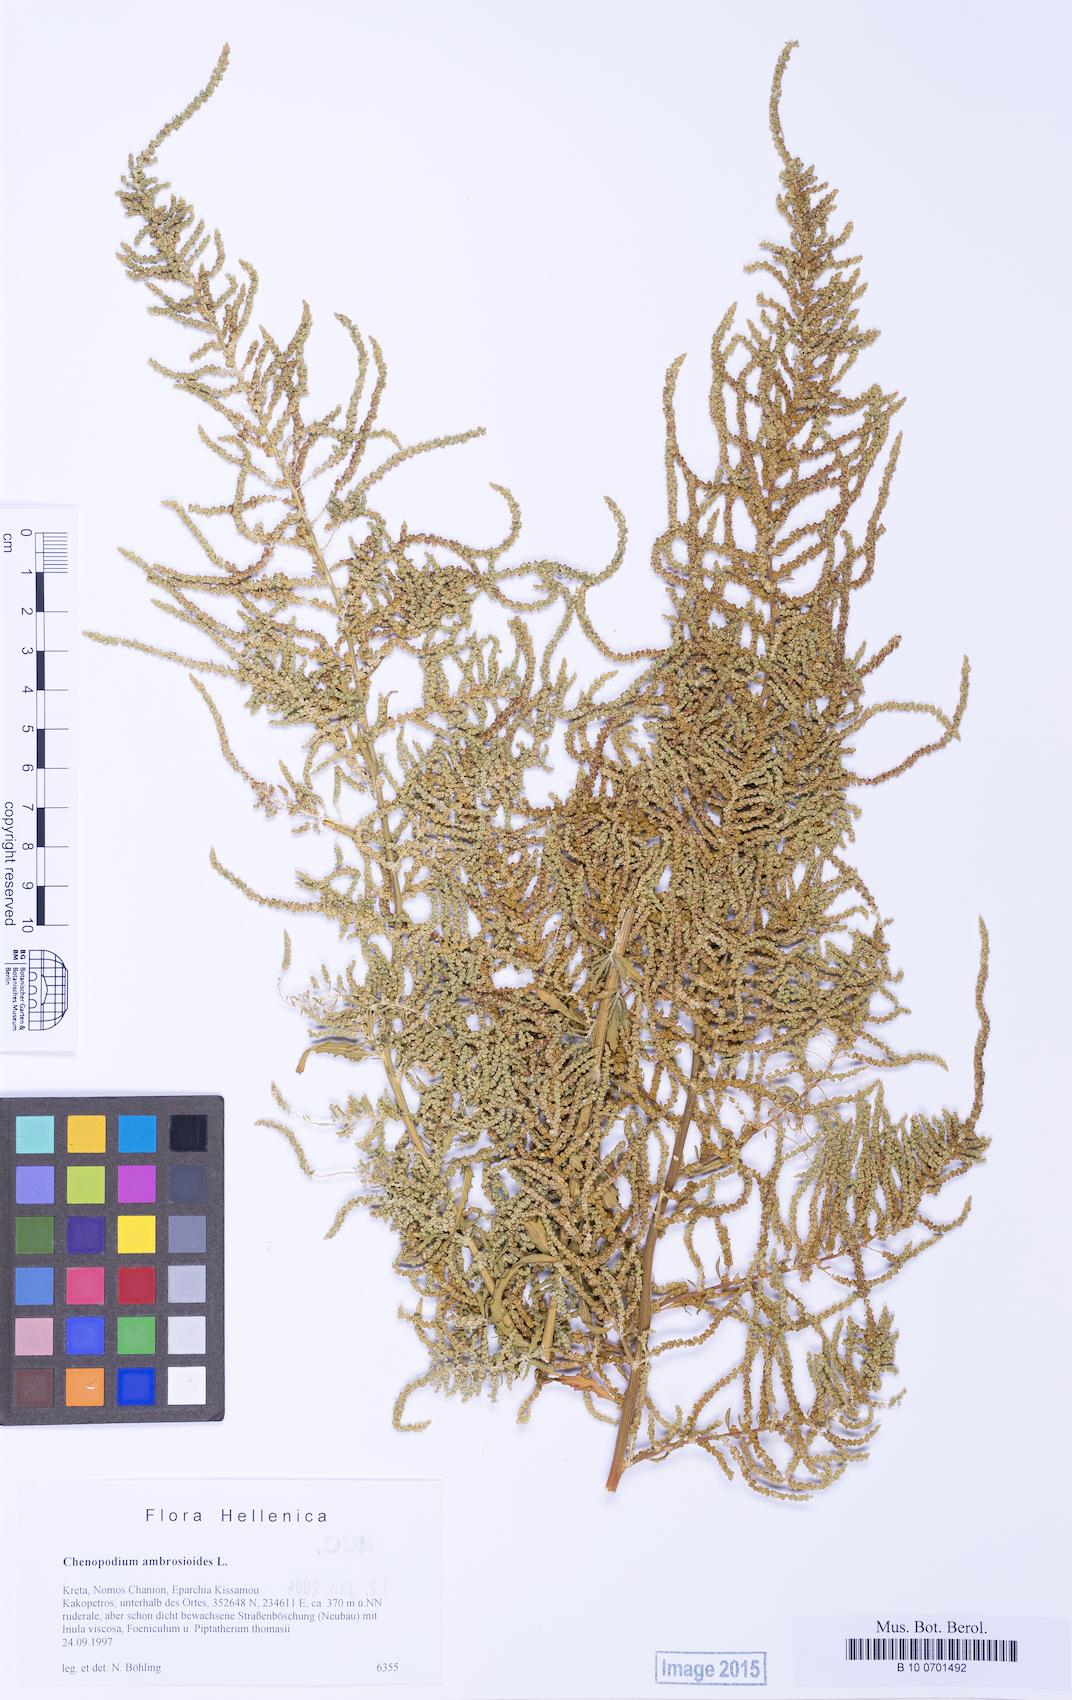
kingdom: Plantae
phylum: Tracheophyta
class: Magnoliopsida
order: Caryophyllales
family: Amaranthaceae
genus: Dysphania
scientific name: Dysphania ambrosioides
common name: Wormseed
